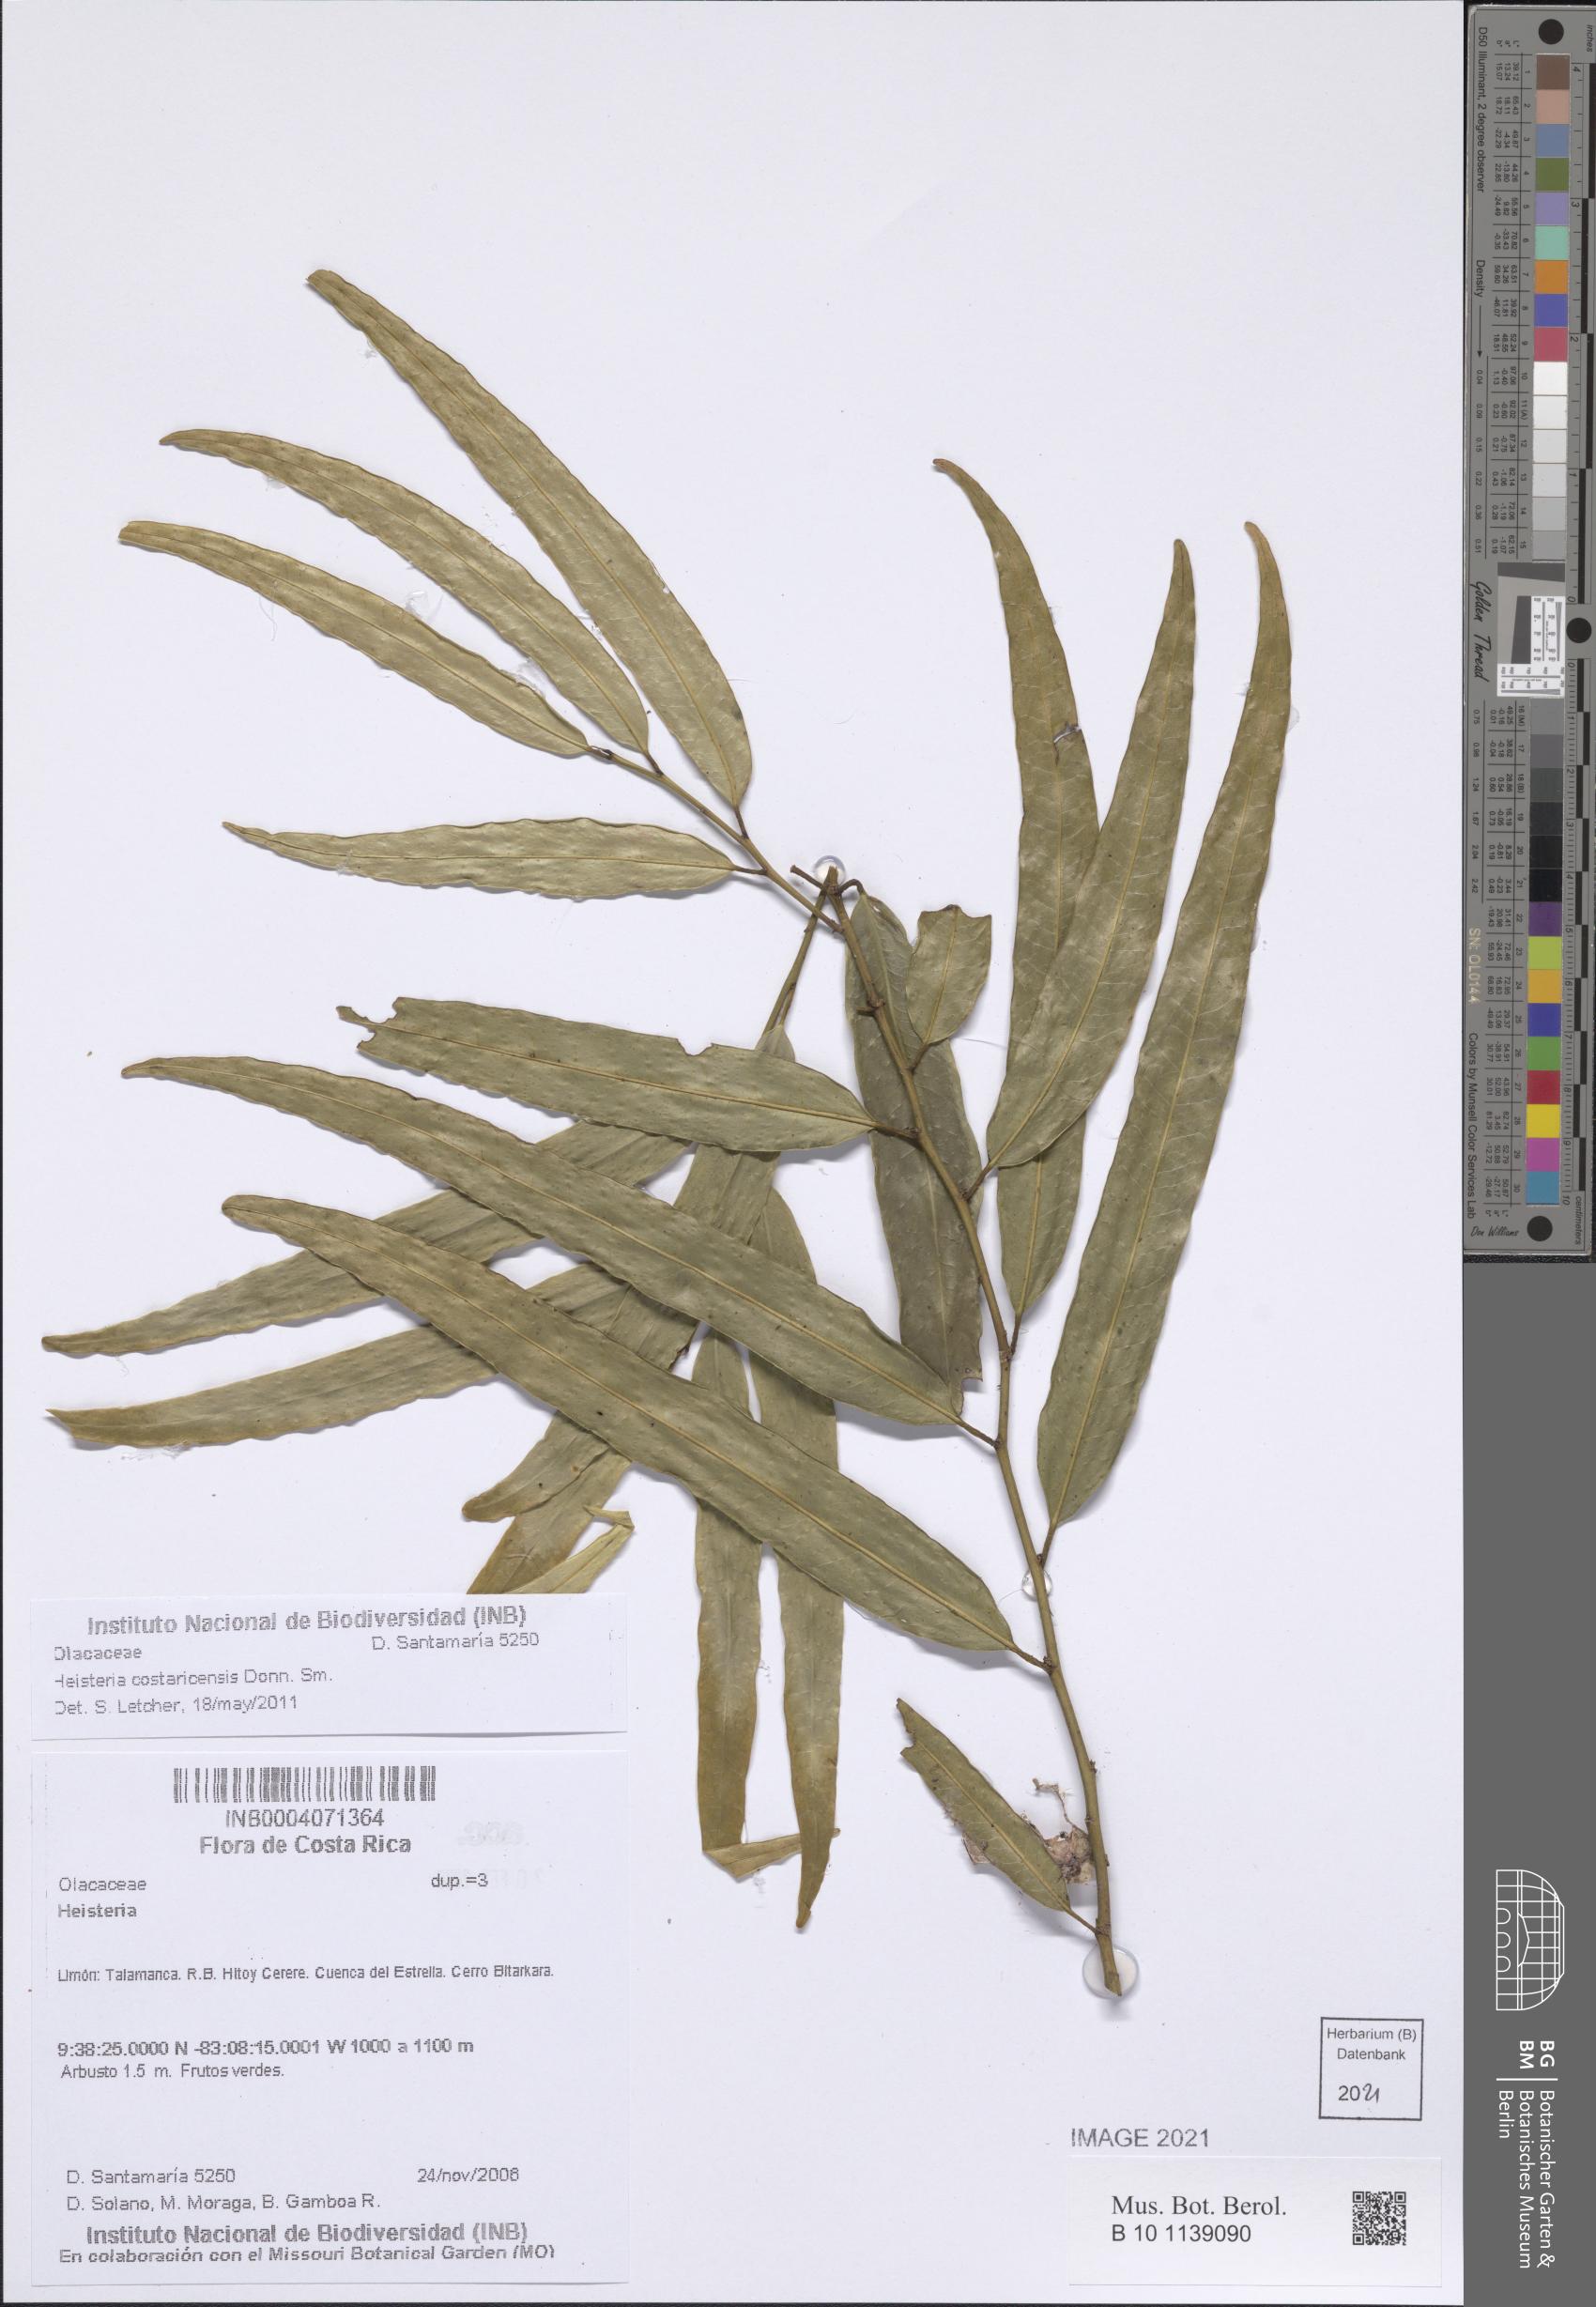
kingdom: Plantae
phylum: Tracheophyta
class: Magnoliopsida
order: Santalales
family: Erythropalaceae
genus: Heisteria
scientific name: Heisteria macrophylla
